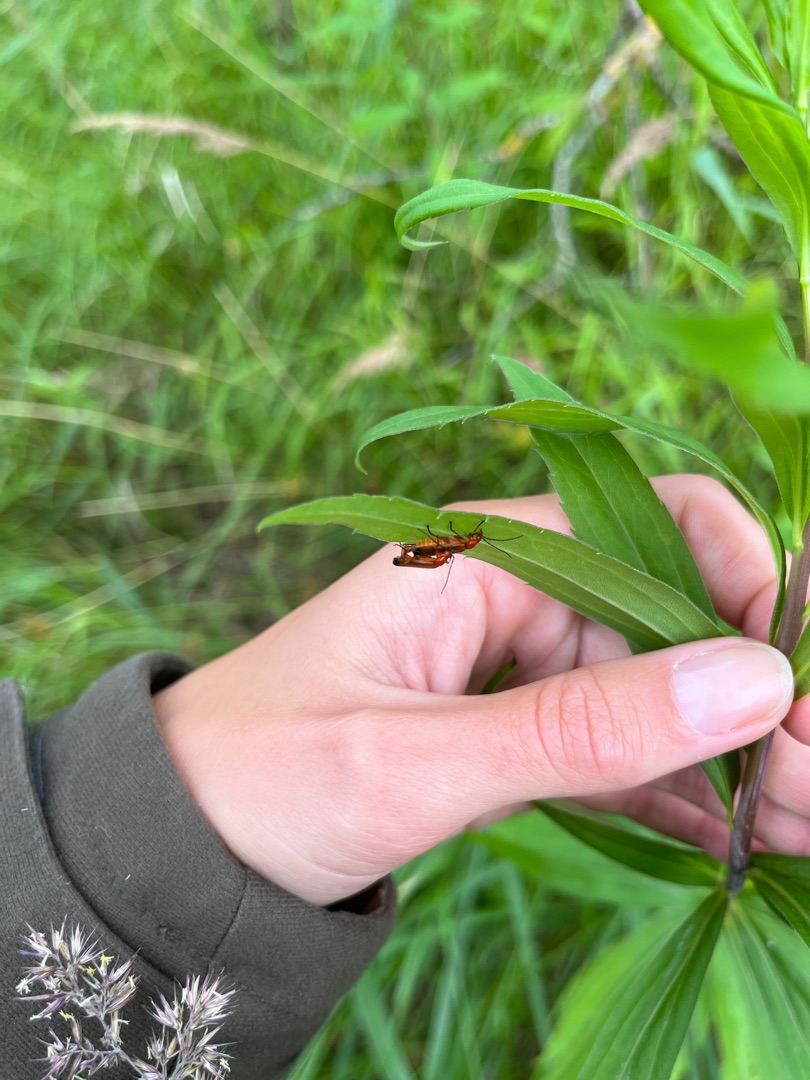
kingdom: Animalia
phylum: Arthropoda
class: Insecta
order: Coleoptera
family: Cantharidae
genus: Rhagonycha
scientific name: Rhagonycha fulva
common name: Præstebille
